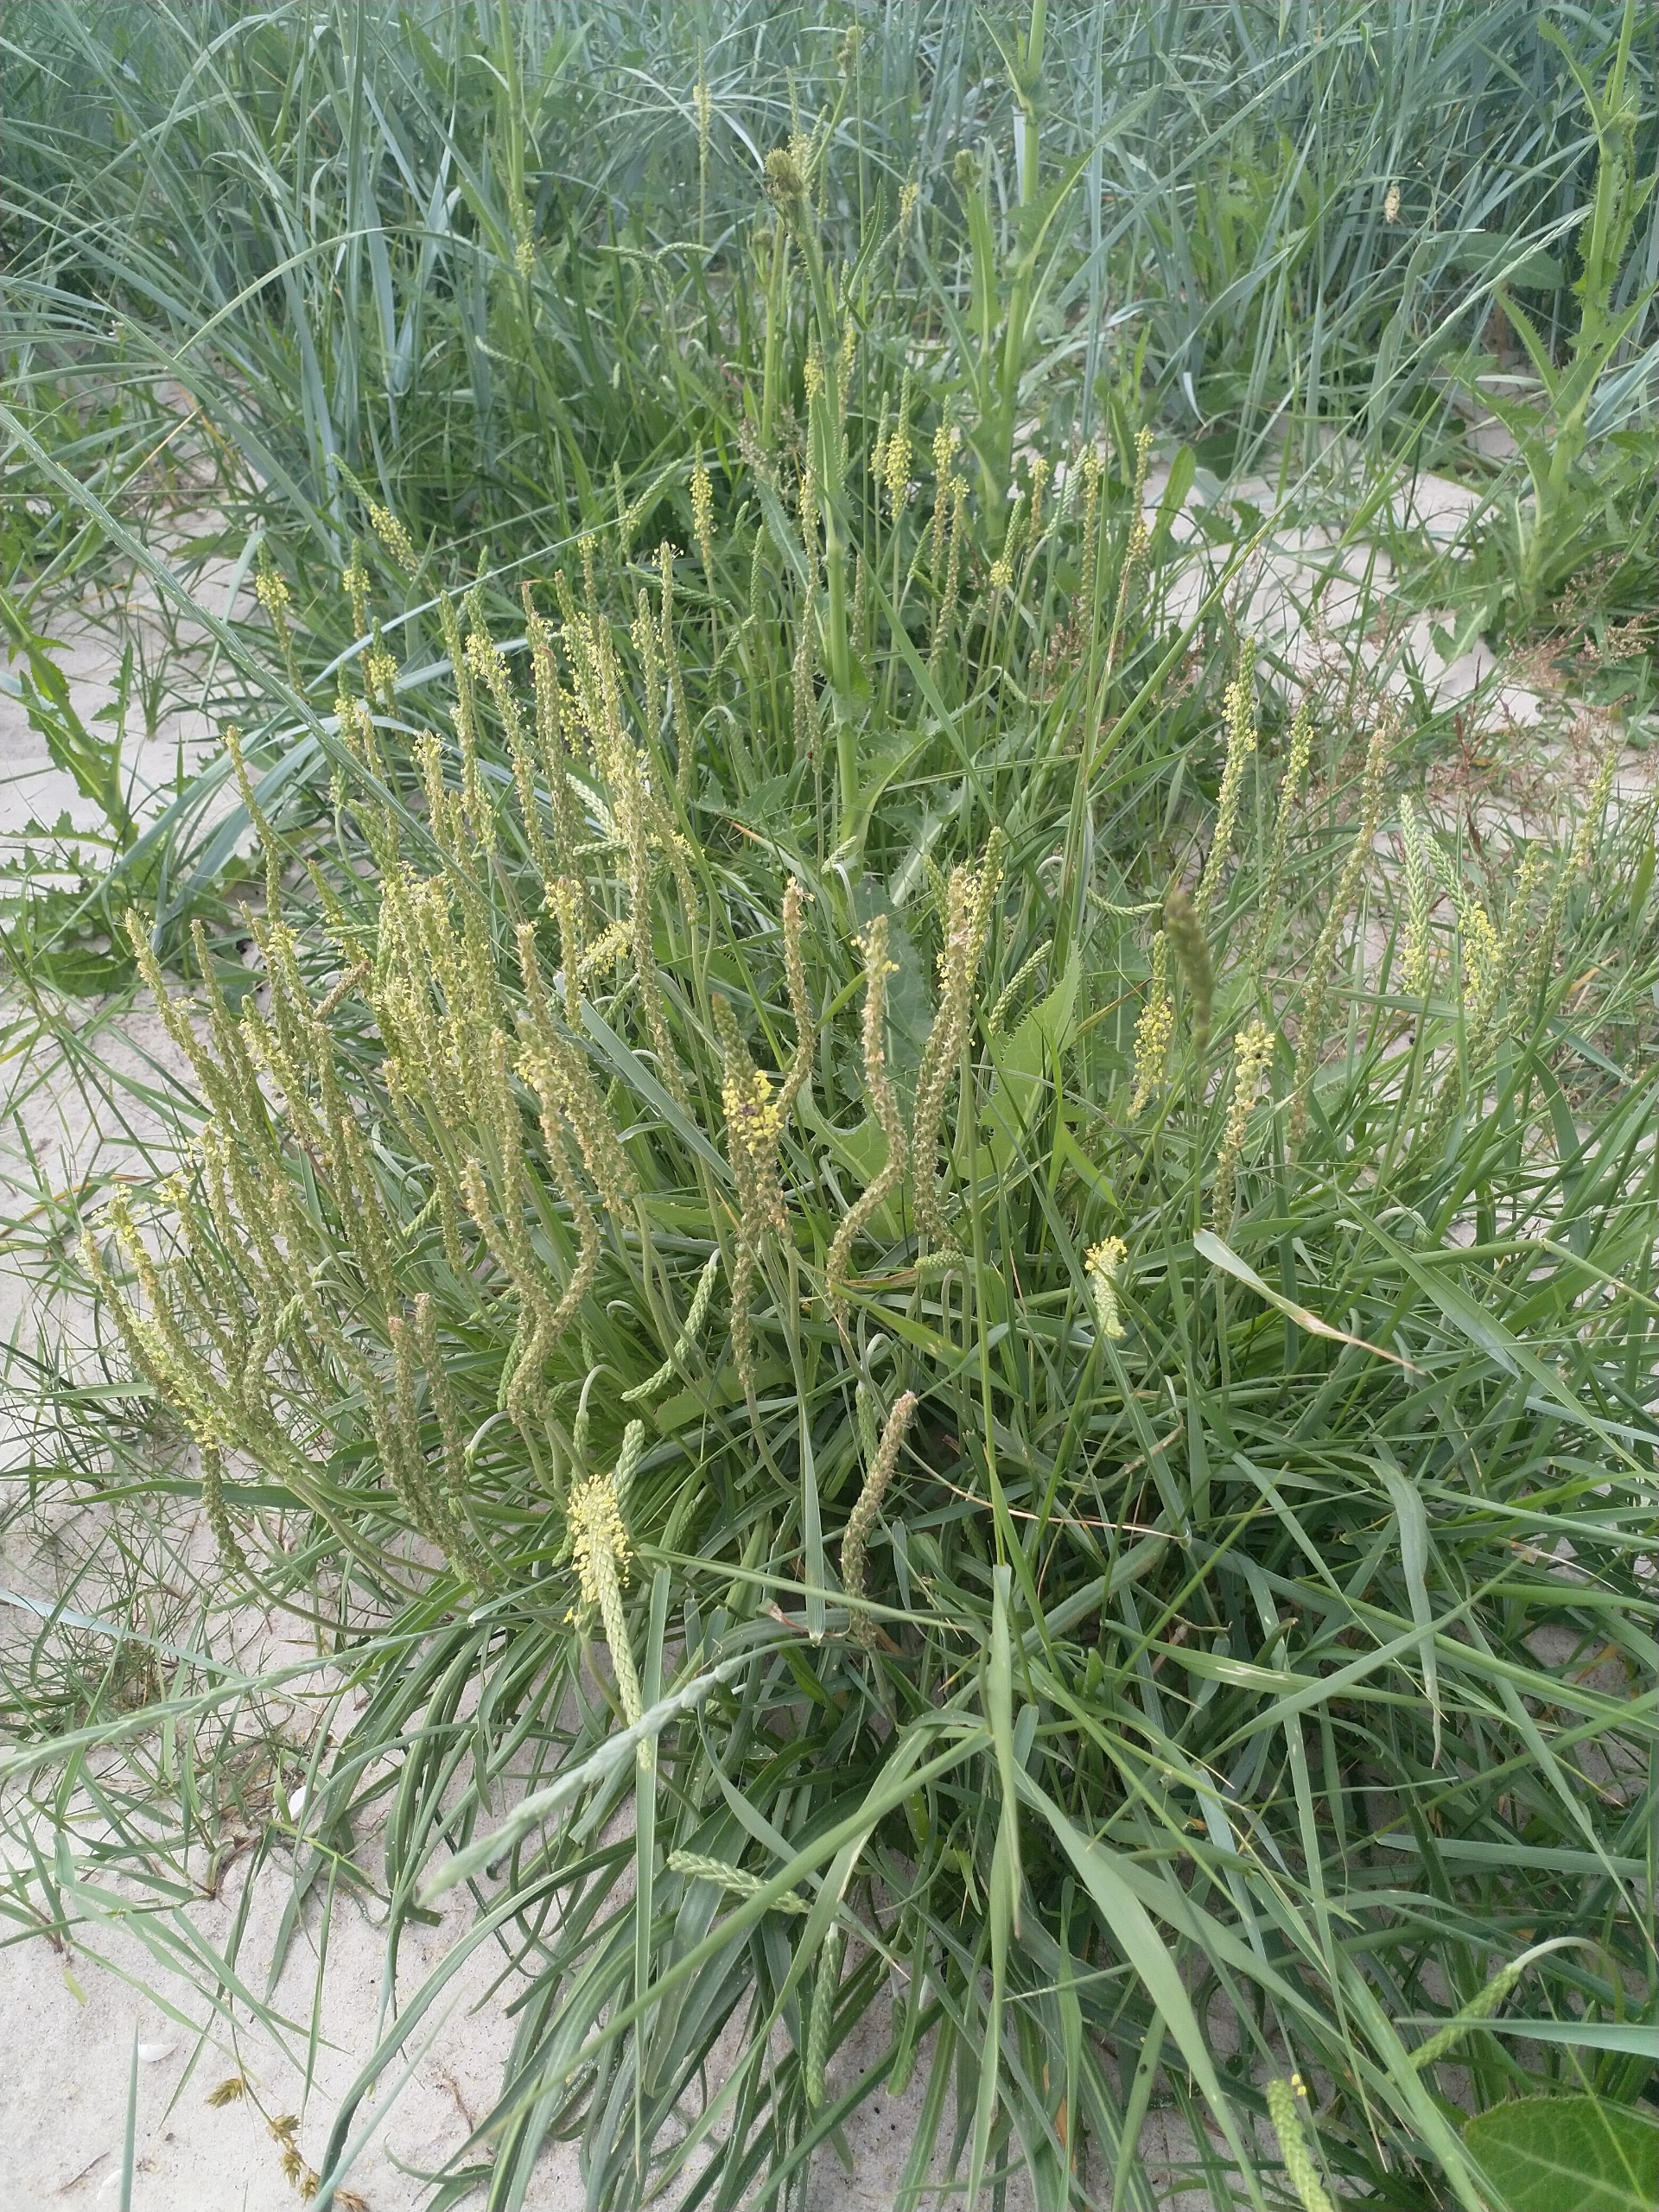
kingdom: Plantae
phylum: Tracheophyta
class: Magnoliopsida
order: Lamiales
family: Plantaginaceae
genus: Plantago
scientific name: Plantago maritima
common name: Strand-vejbred
